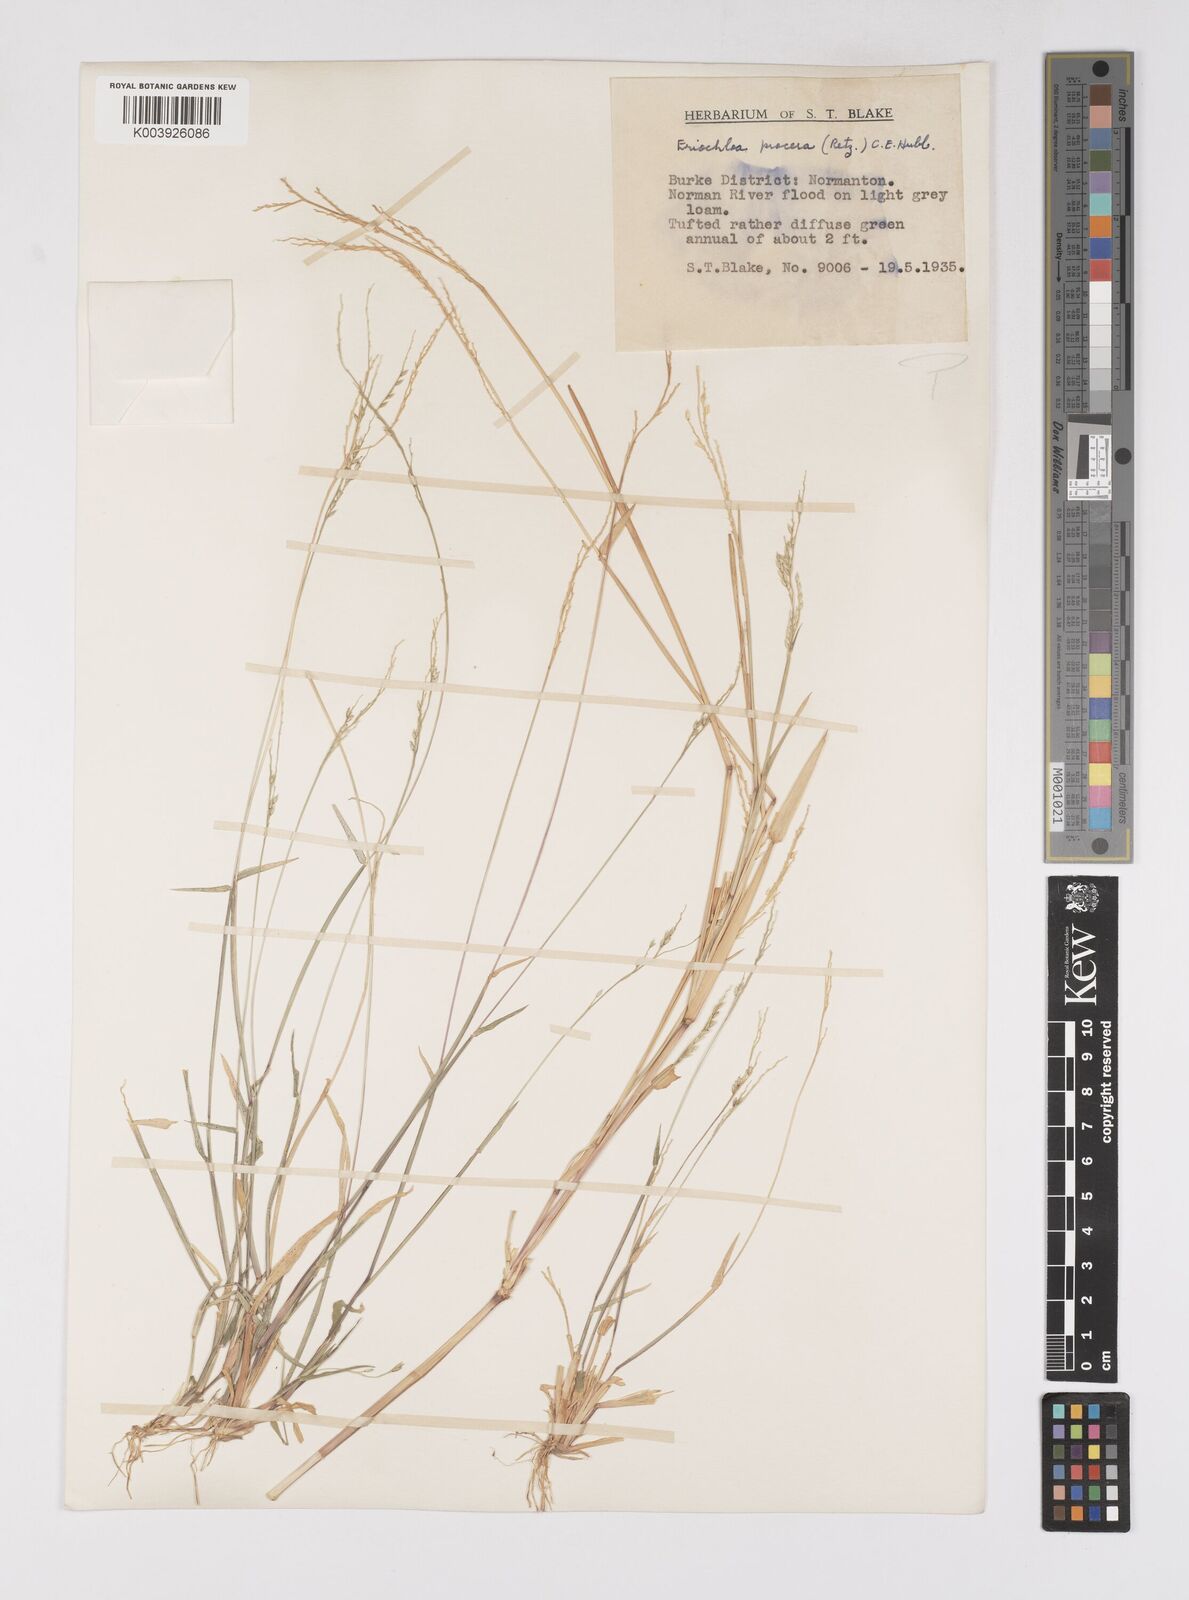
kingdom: Plantae
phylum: Tracheophyta
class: Liliopsida
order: Poales
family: Poaceae
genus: Eriochloa
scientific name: Eriochloa
